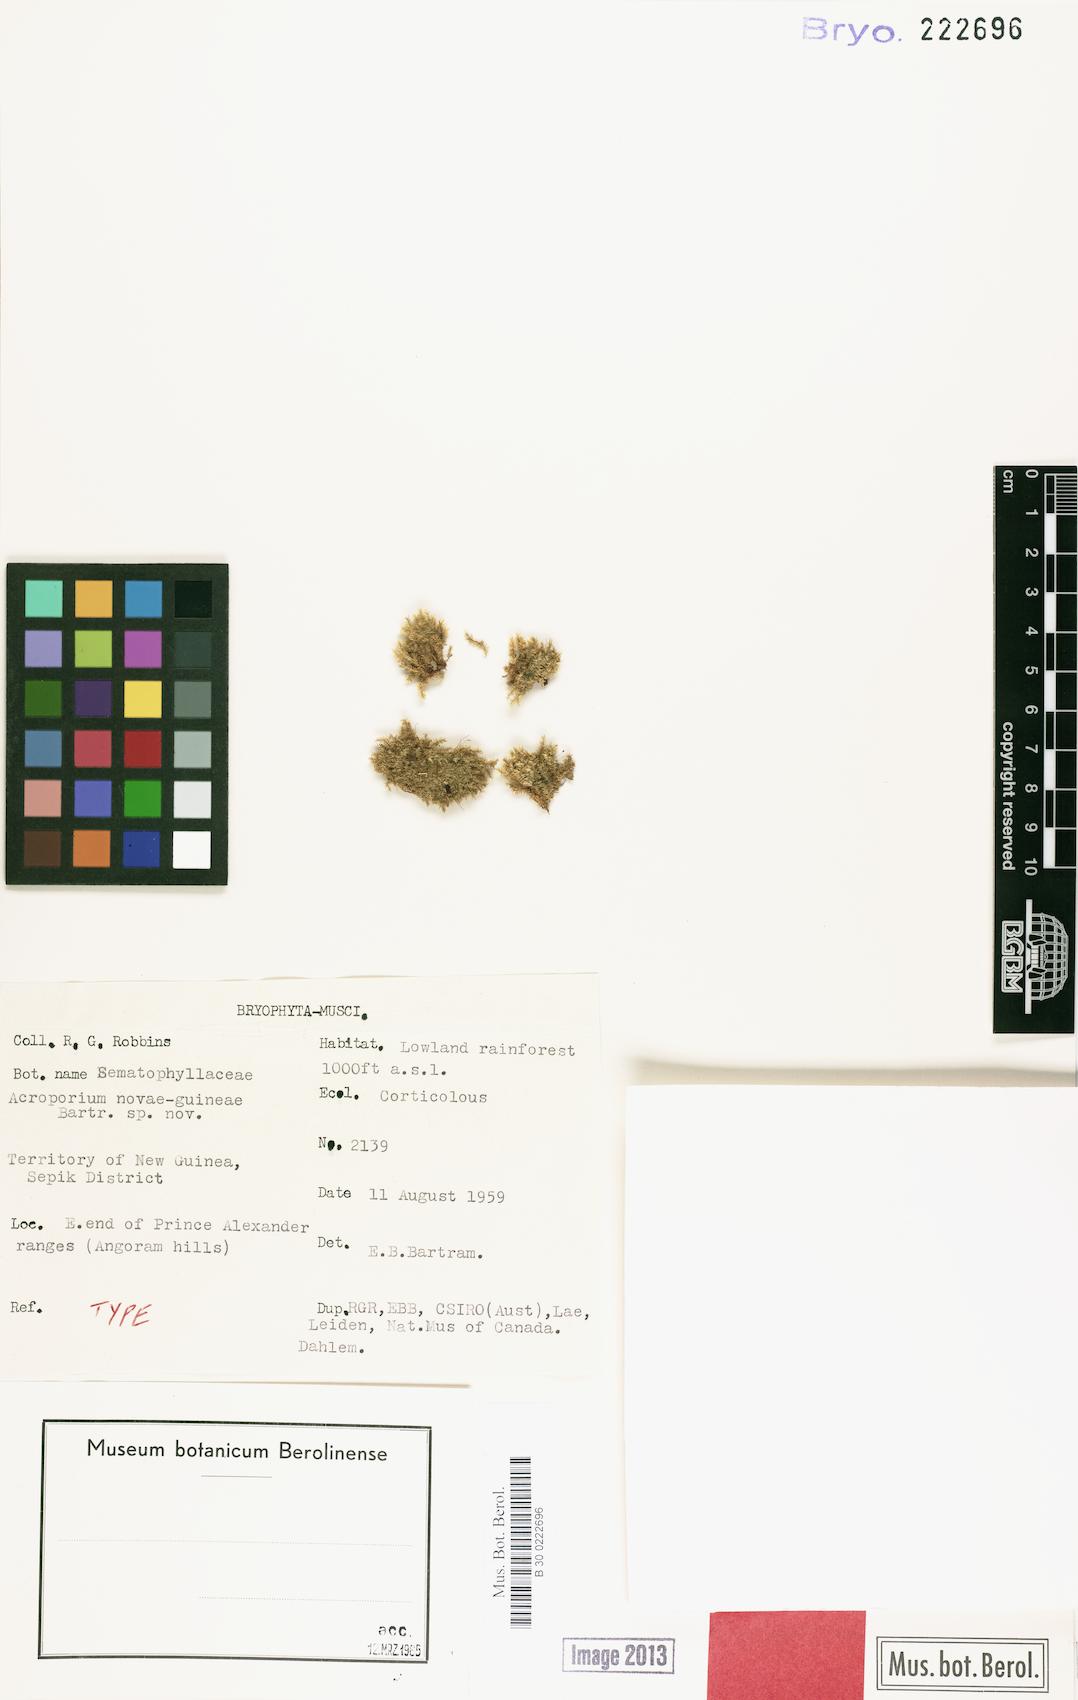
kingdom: Plantae
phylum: Bryophyta
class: Bryopsida
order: Hypnales
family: Sematophyllaceae
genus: Acroporium
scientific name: Acroporium adspersum
